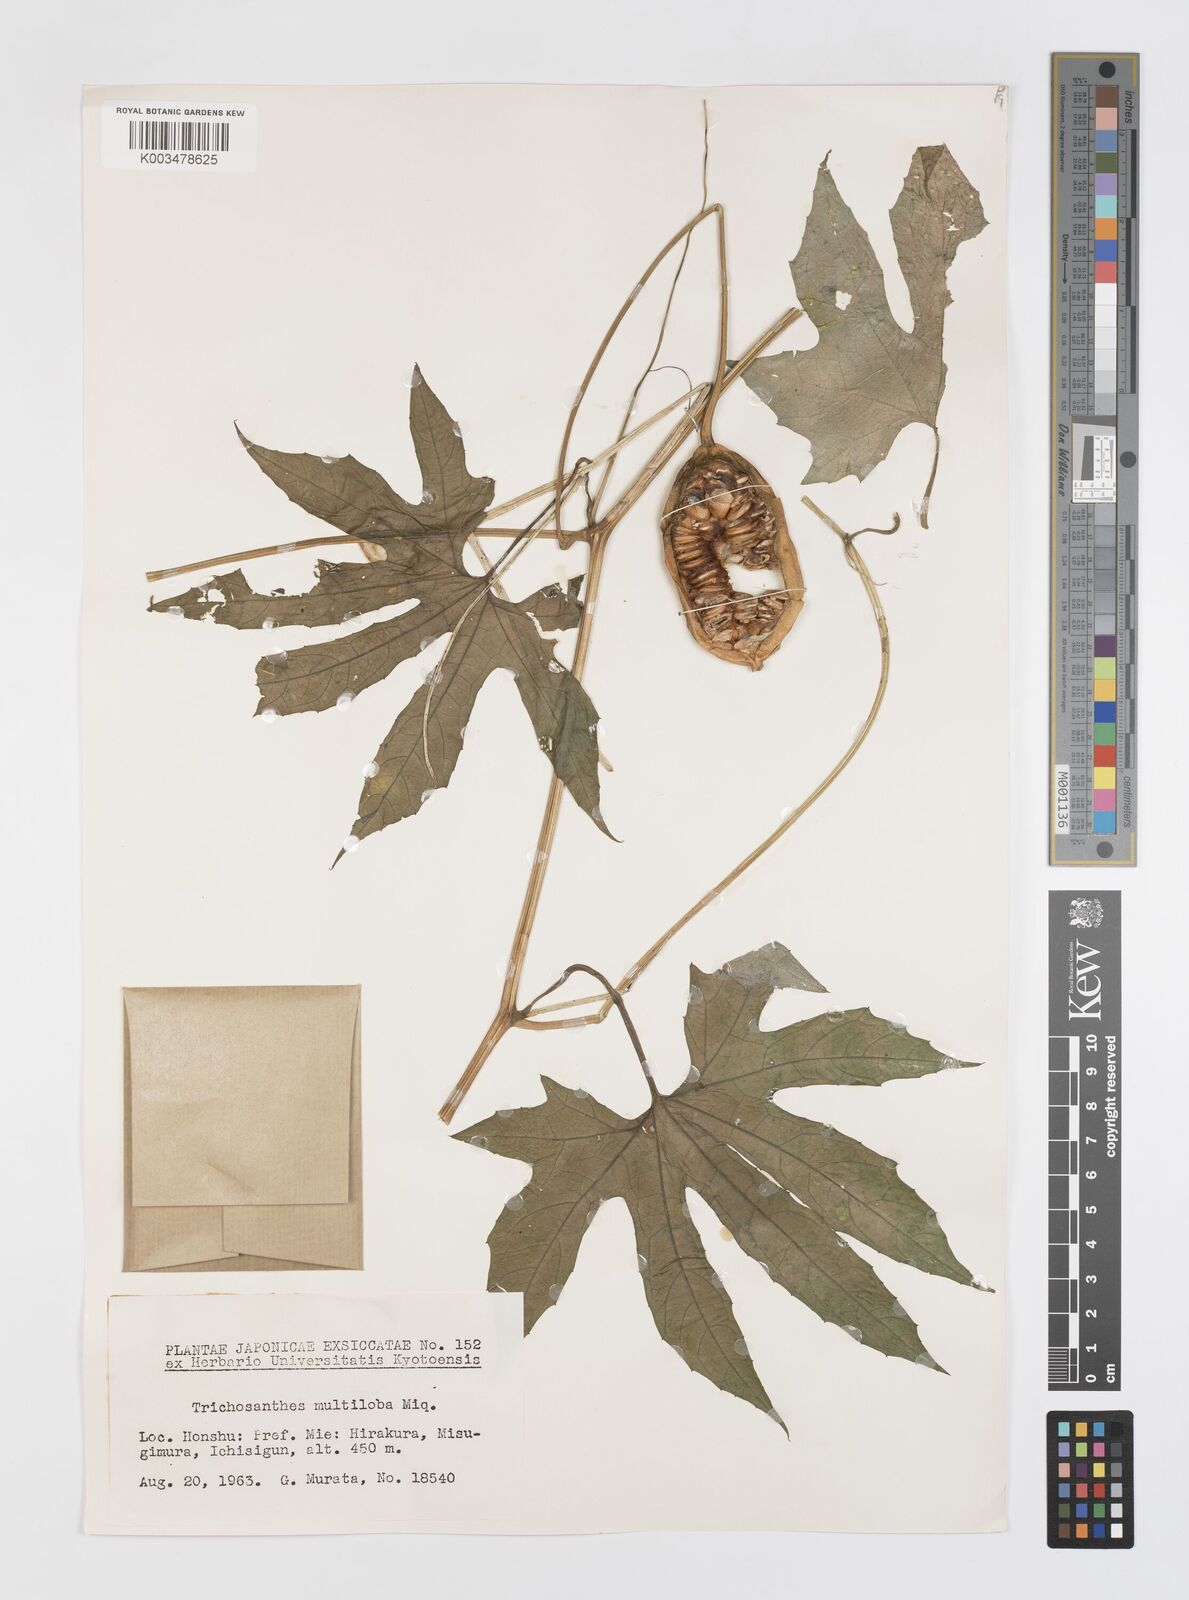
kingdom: Plantae
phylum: Tracheophyta
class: Magnoliopsida
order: Cucurbitales
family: Cucurbitaceae
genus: Trichosanthes
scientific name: Trichosanthes multiloba
